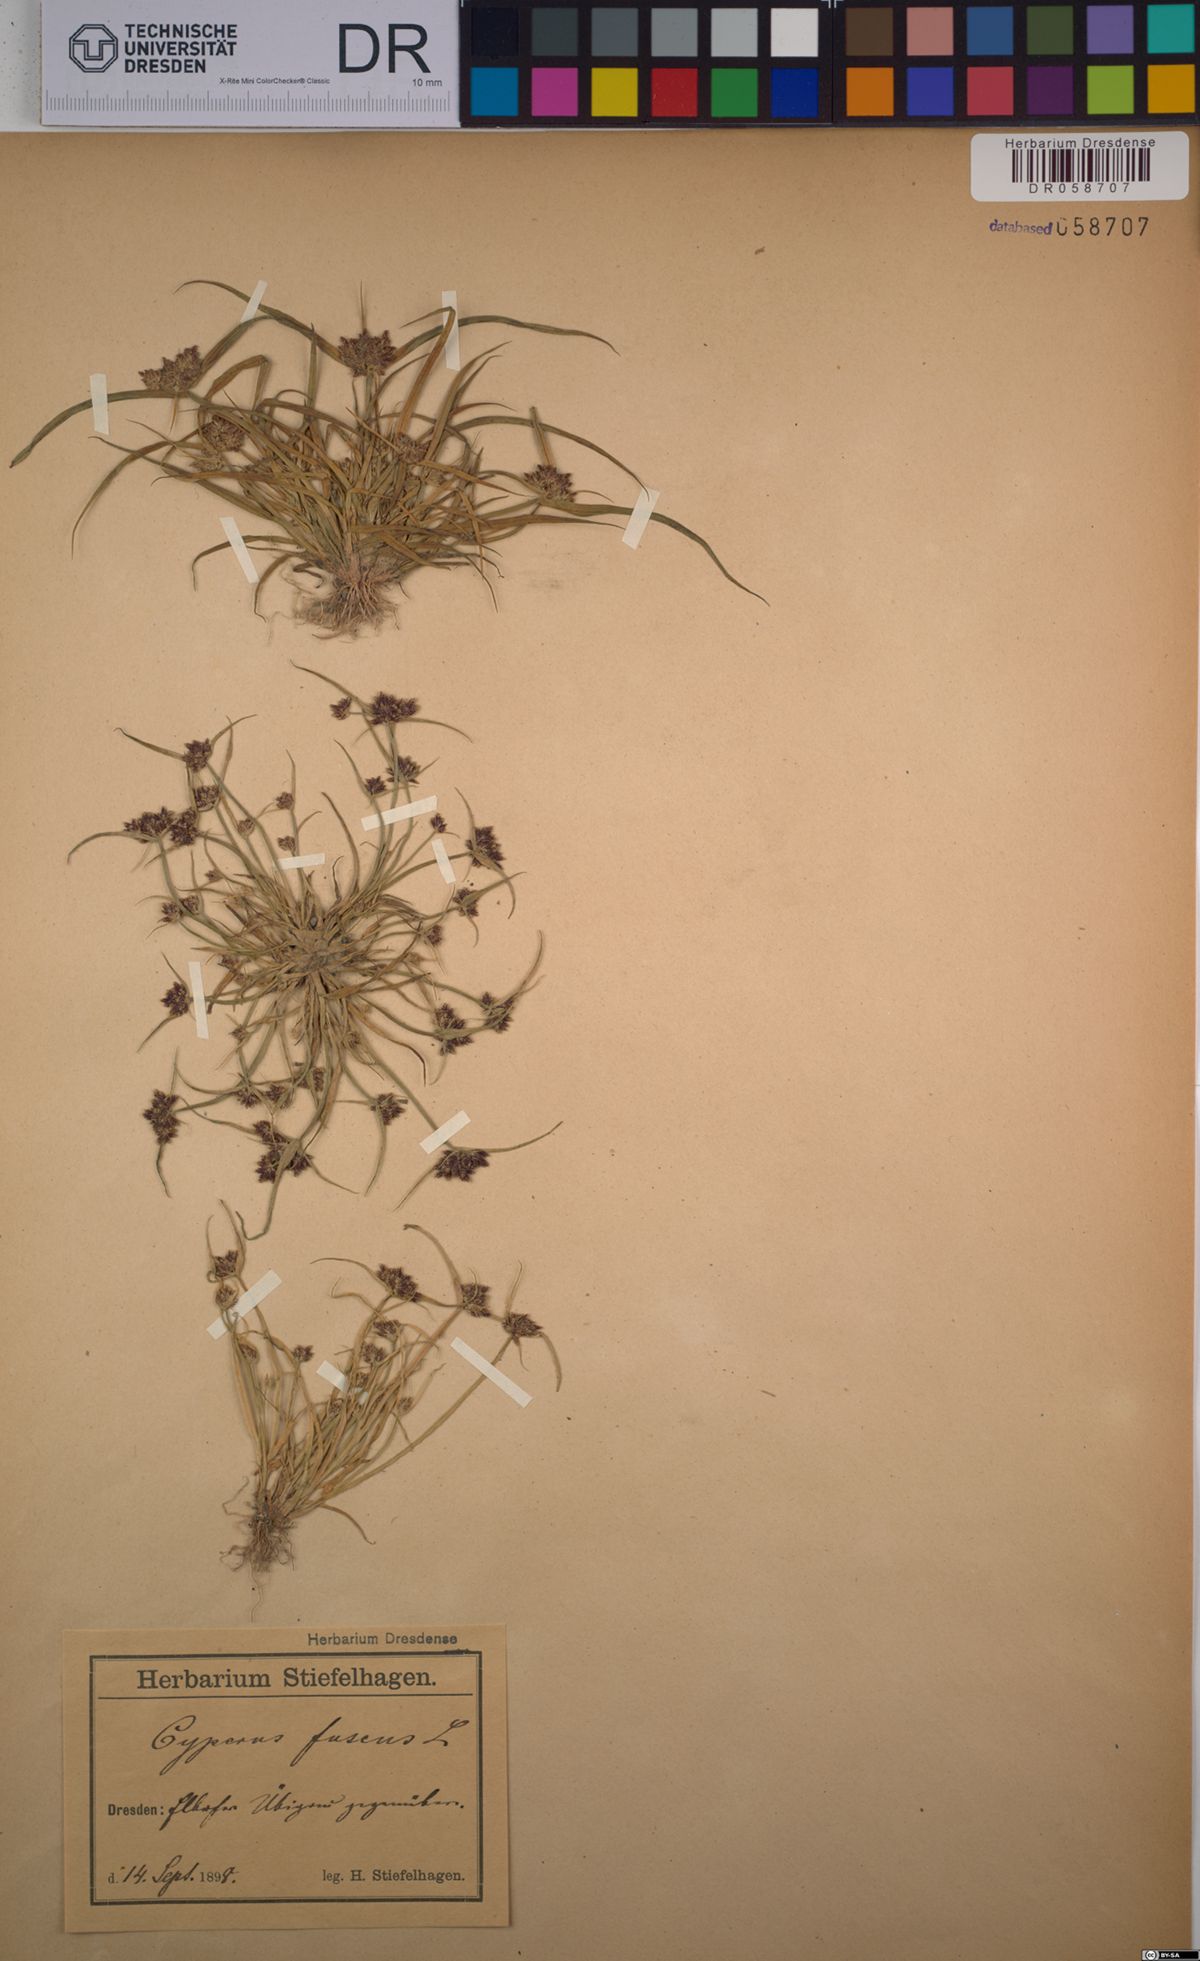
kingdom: Plantae
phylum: Tracheophyta
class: Liliopsida
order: Poales
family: Cyperaceae
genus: Cyperus
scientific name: Cyperus fuscus
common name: Brown galingale
